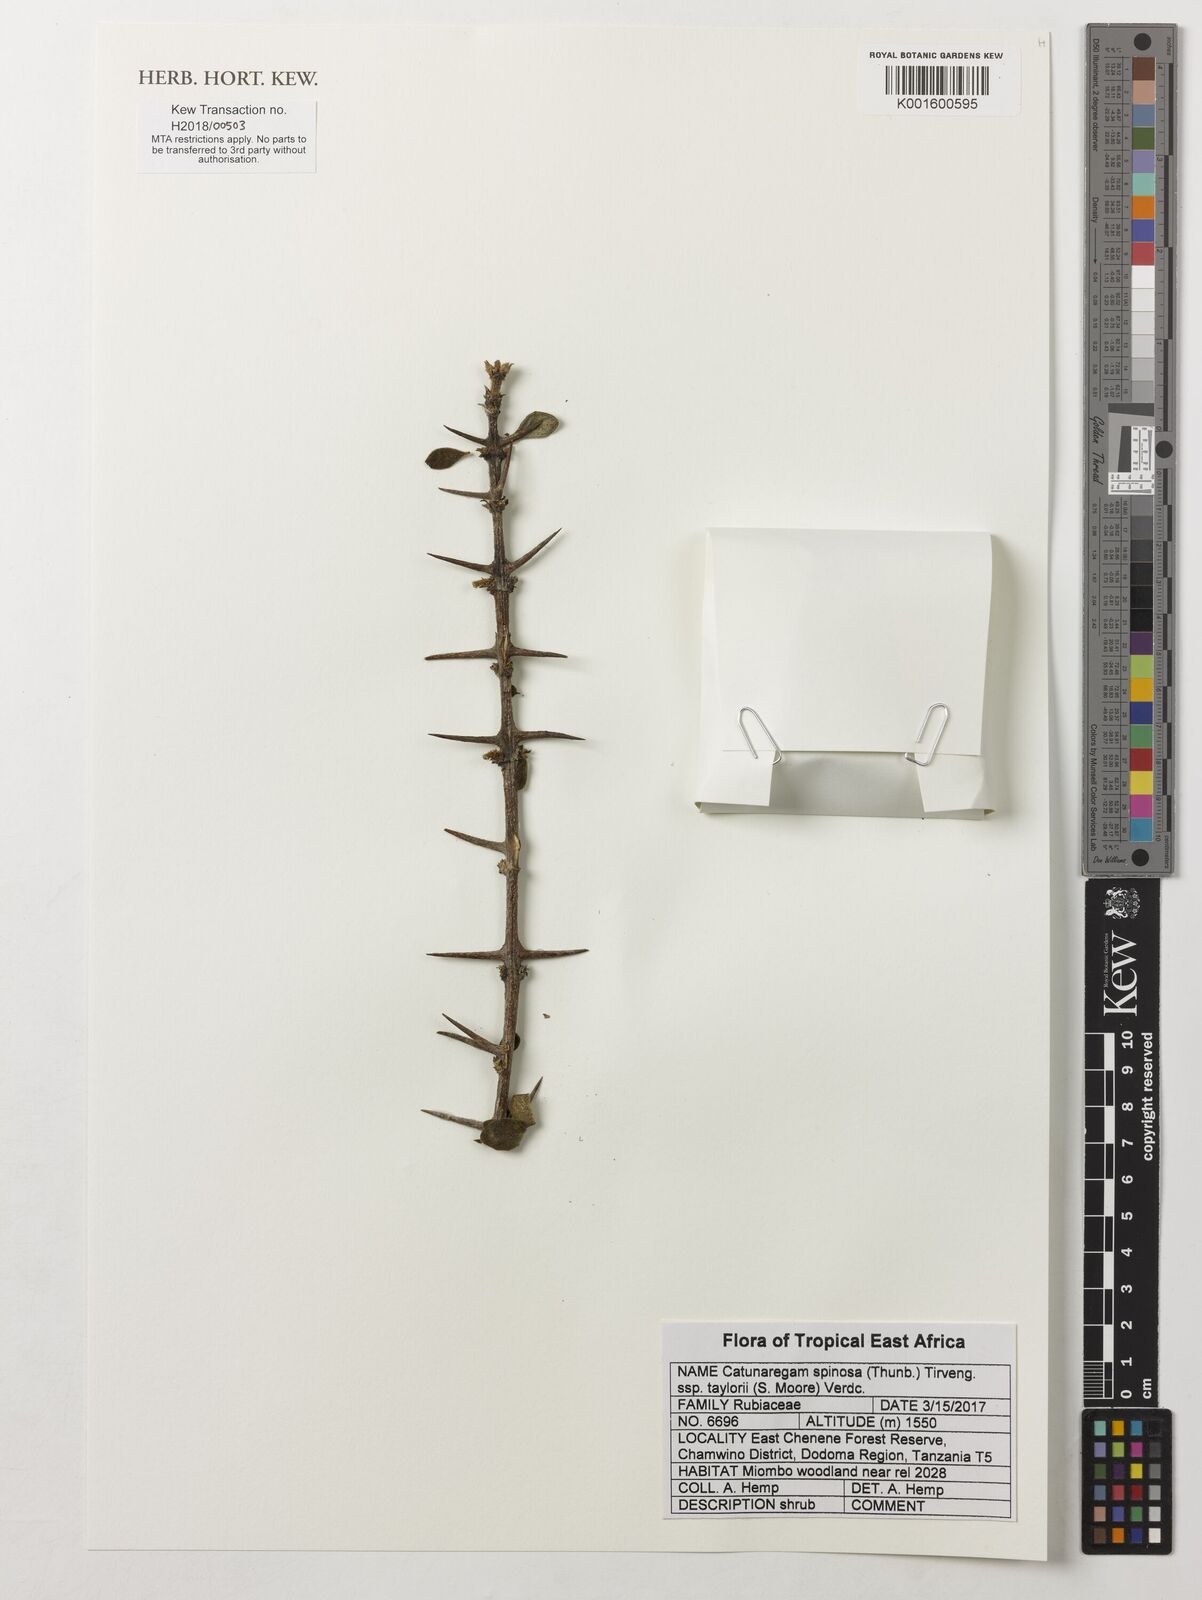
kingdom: Plantae
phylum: Tracheophyta
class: Magnoliopsida
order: Gentianales
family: Rubiaceae
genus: Catunaregam
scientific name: Catunaregam taylorii
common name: Miombo bone-apple
